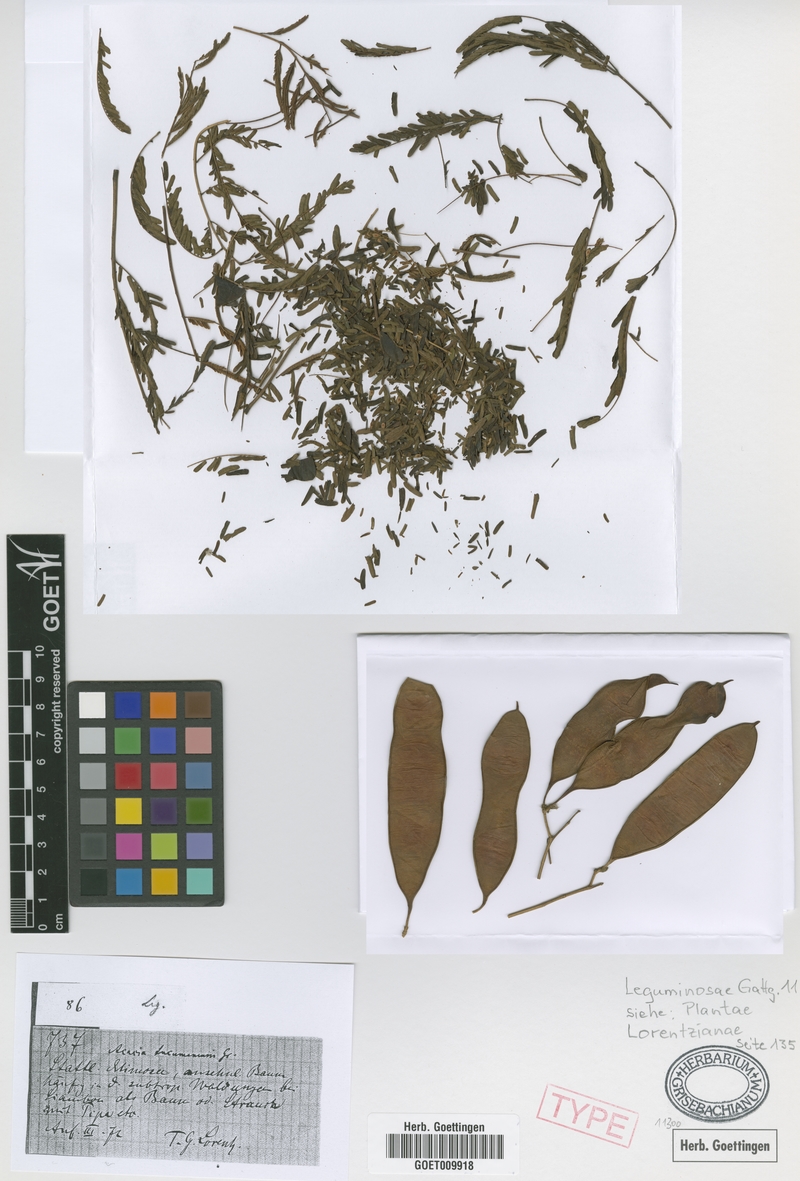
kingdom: Plantae
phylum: Tracheophyta
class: Magnoliopsida
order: Fabales
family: Fabaceae
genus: Senegalia
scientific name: Senegalia tucumanensis
